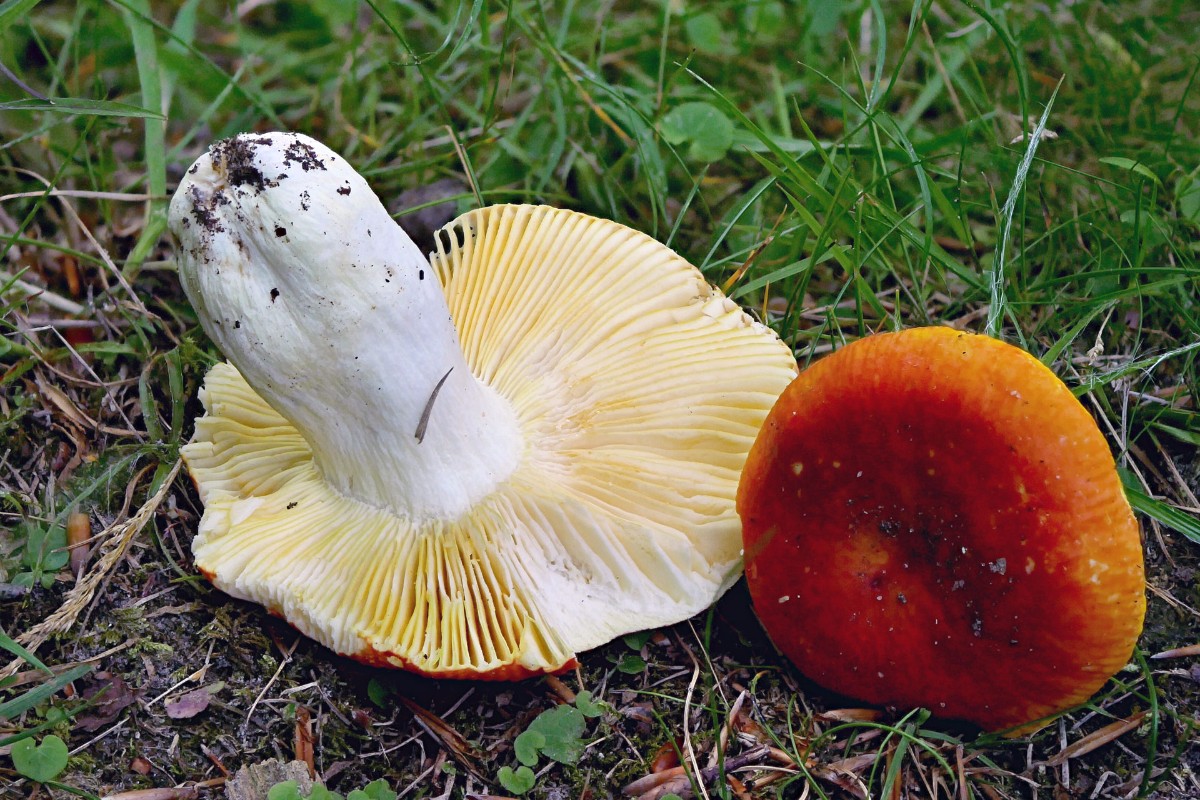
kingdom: Fungi
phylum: Basidiomycota
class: Agaricomycetes
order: Russulales
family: Russulaceae
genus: Russula
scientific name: Russula aurea
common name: gylden skørhat
